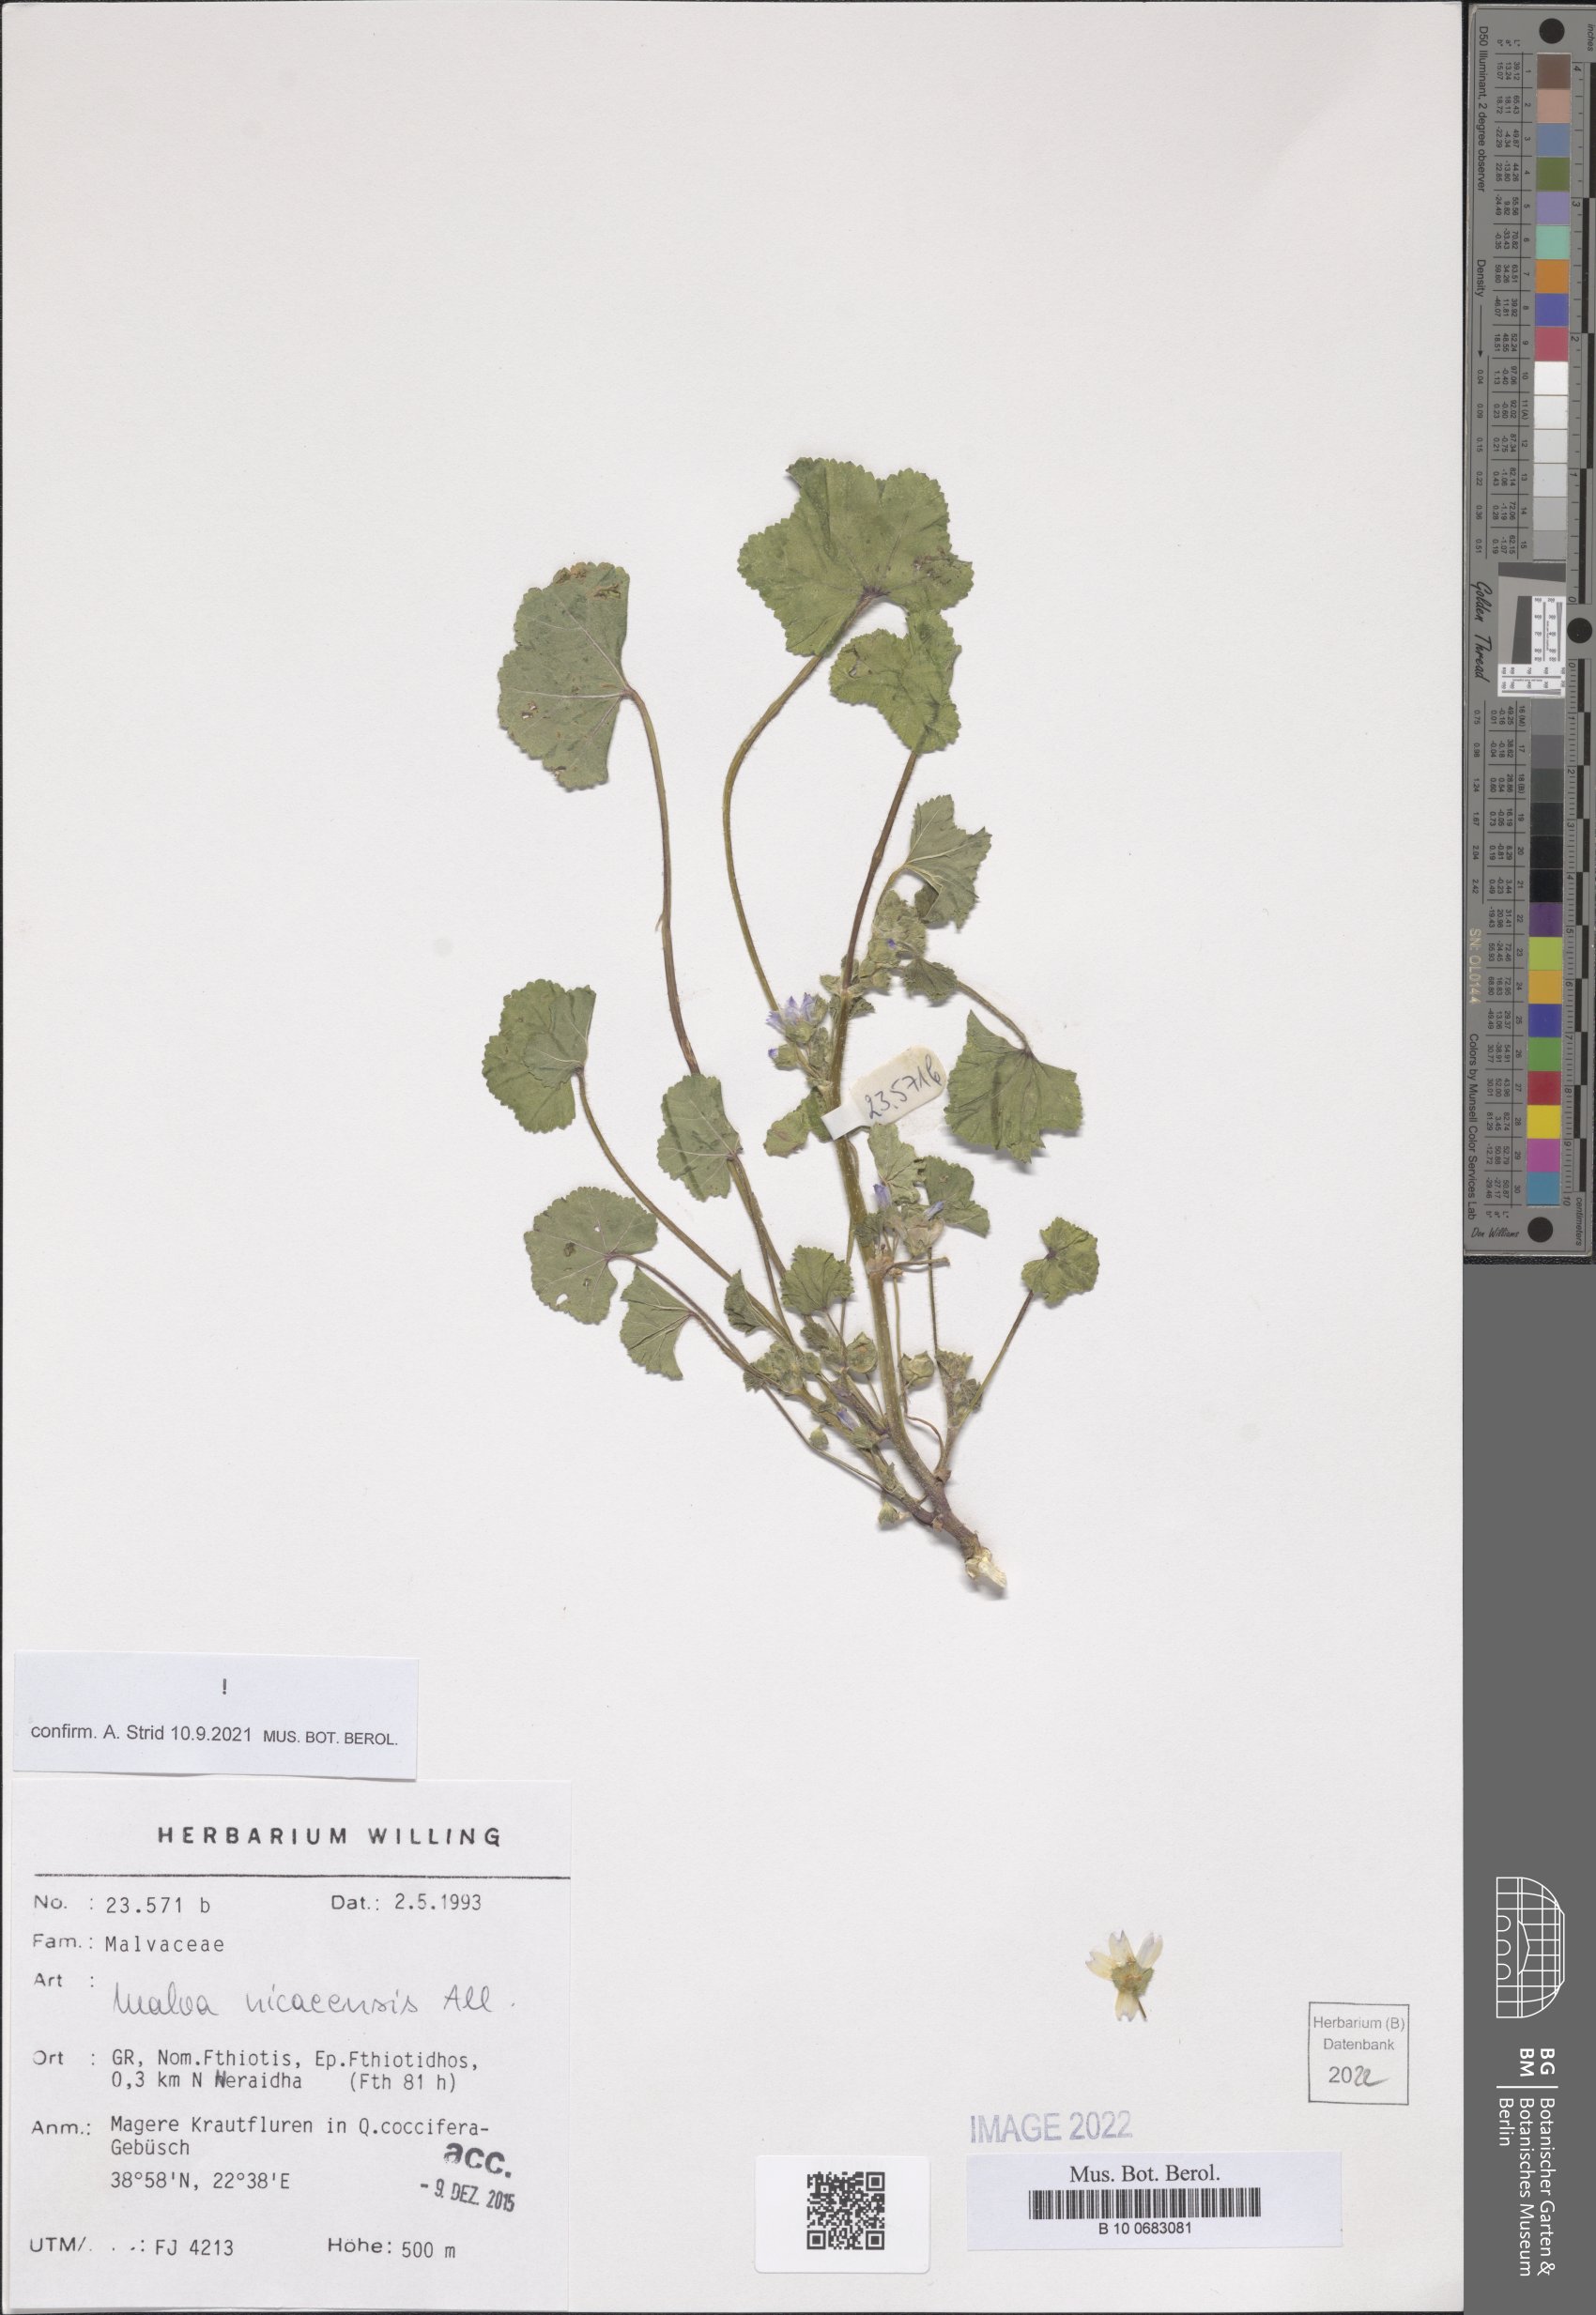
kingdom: Plantae
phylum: Tracheophyta
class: Magnoliopsida
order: Malvales
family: Malvaceae
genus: Malva
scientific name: Malva nicaeensis
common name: French mallow
